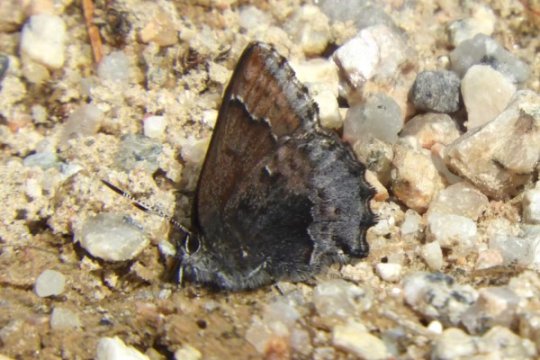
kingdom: Animalia
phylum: Arthropoda
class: Insecta
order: Lepidoptera
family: Lycaenidae
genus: Callophrys
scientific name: Callophrys polios
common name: Hoary Elfin
